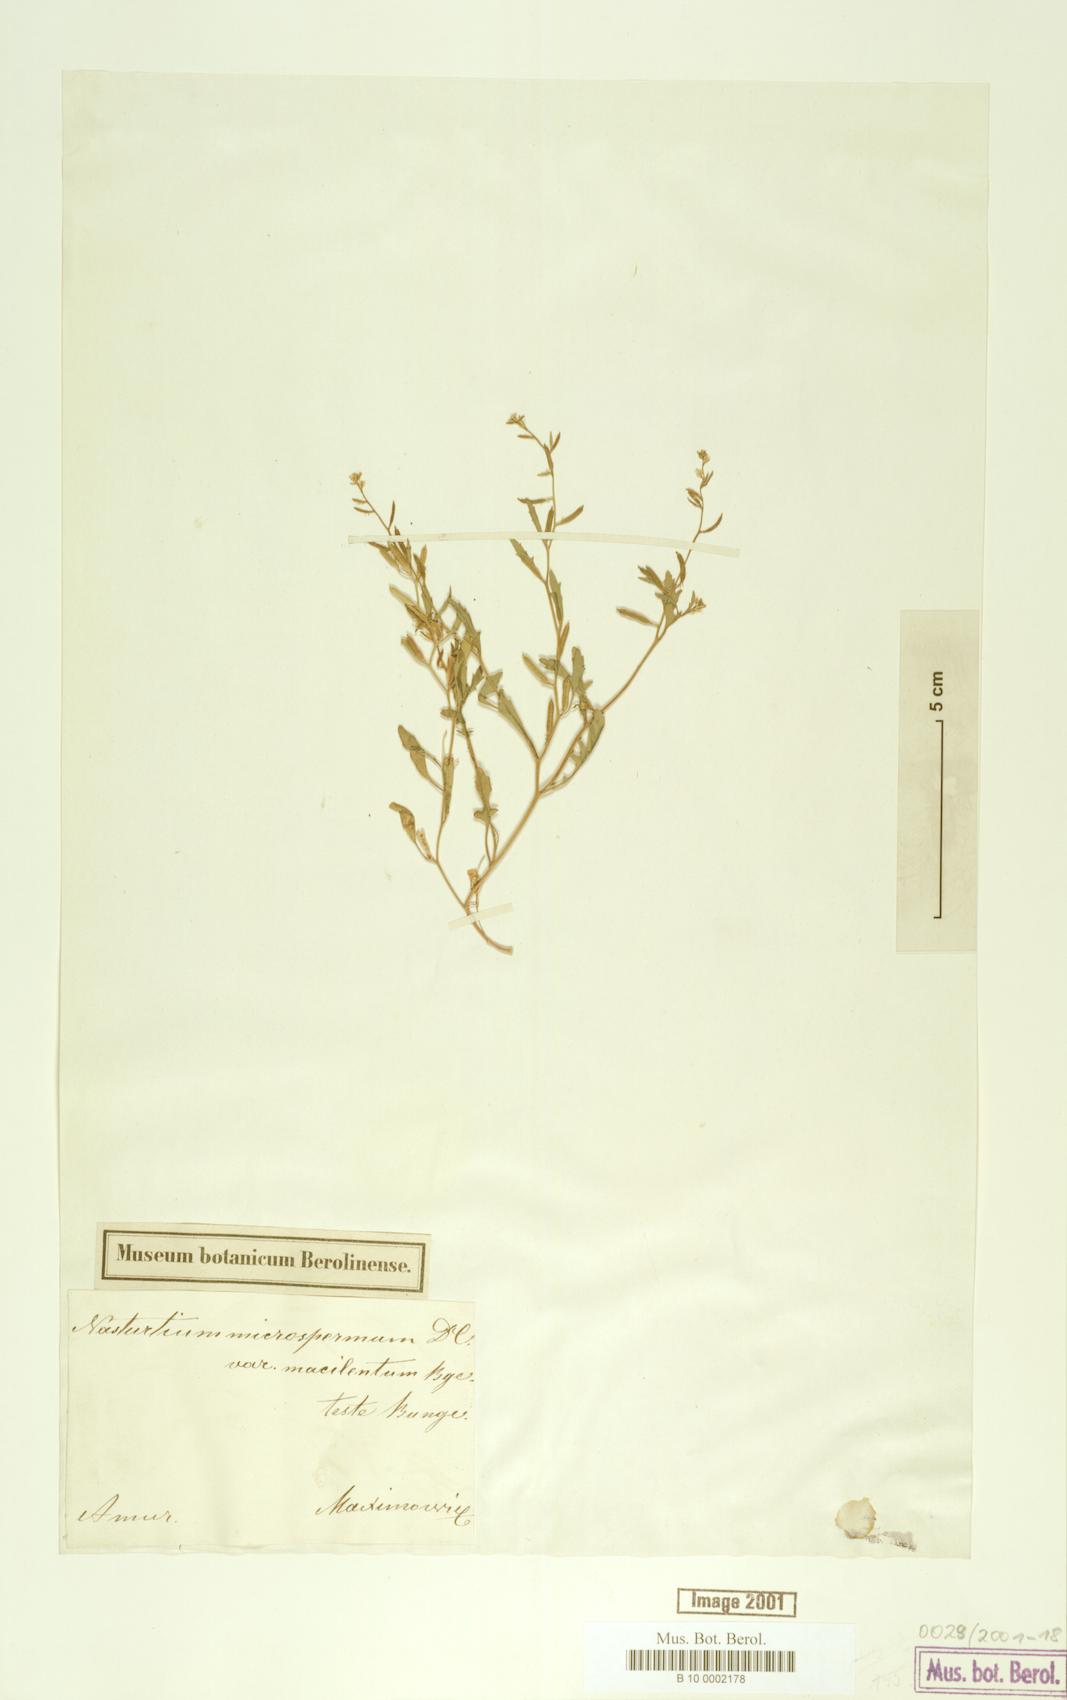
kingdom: Plantae
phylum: Tracheophyta
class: Magnoliopsida
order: Brassicales
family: Brassicaceae
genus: Rorippa
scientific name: Rorippa cantoniensis
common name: Chinese yellowcress
